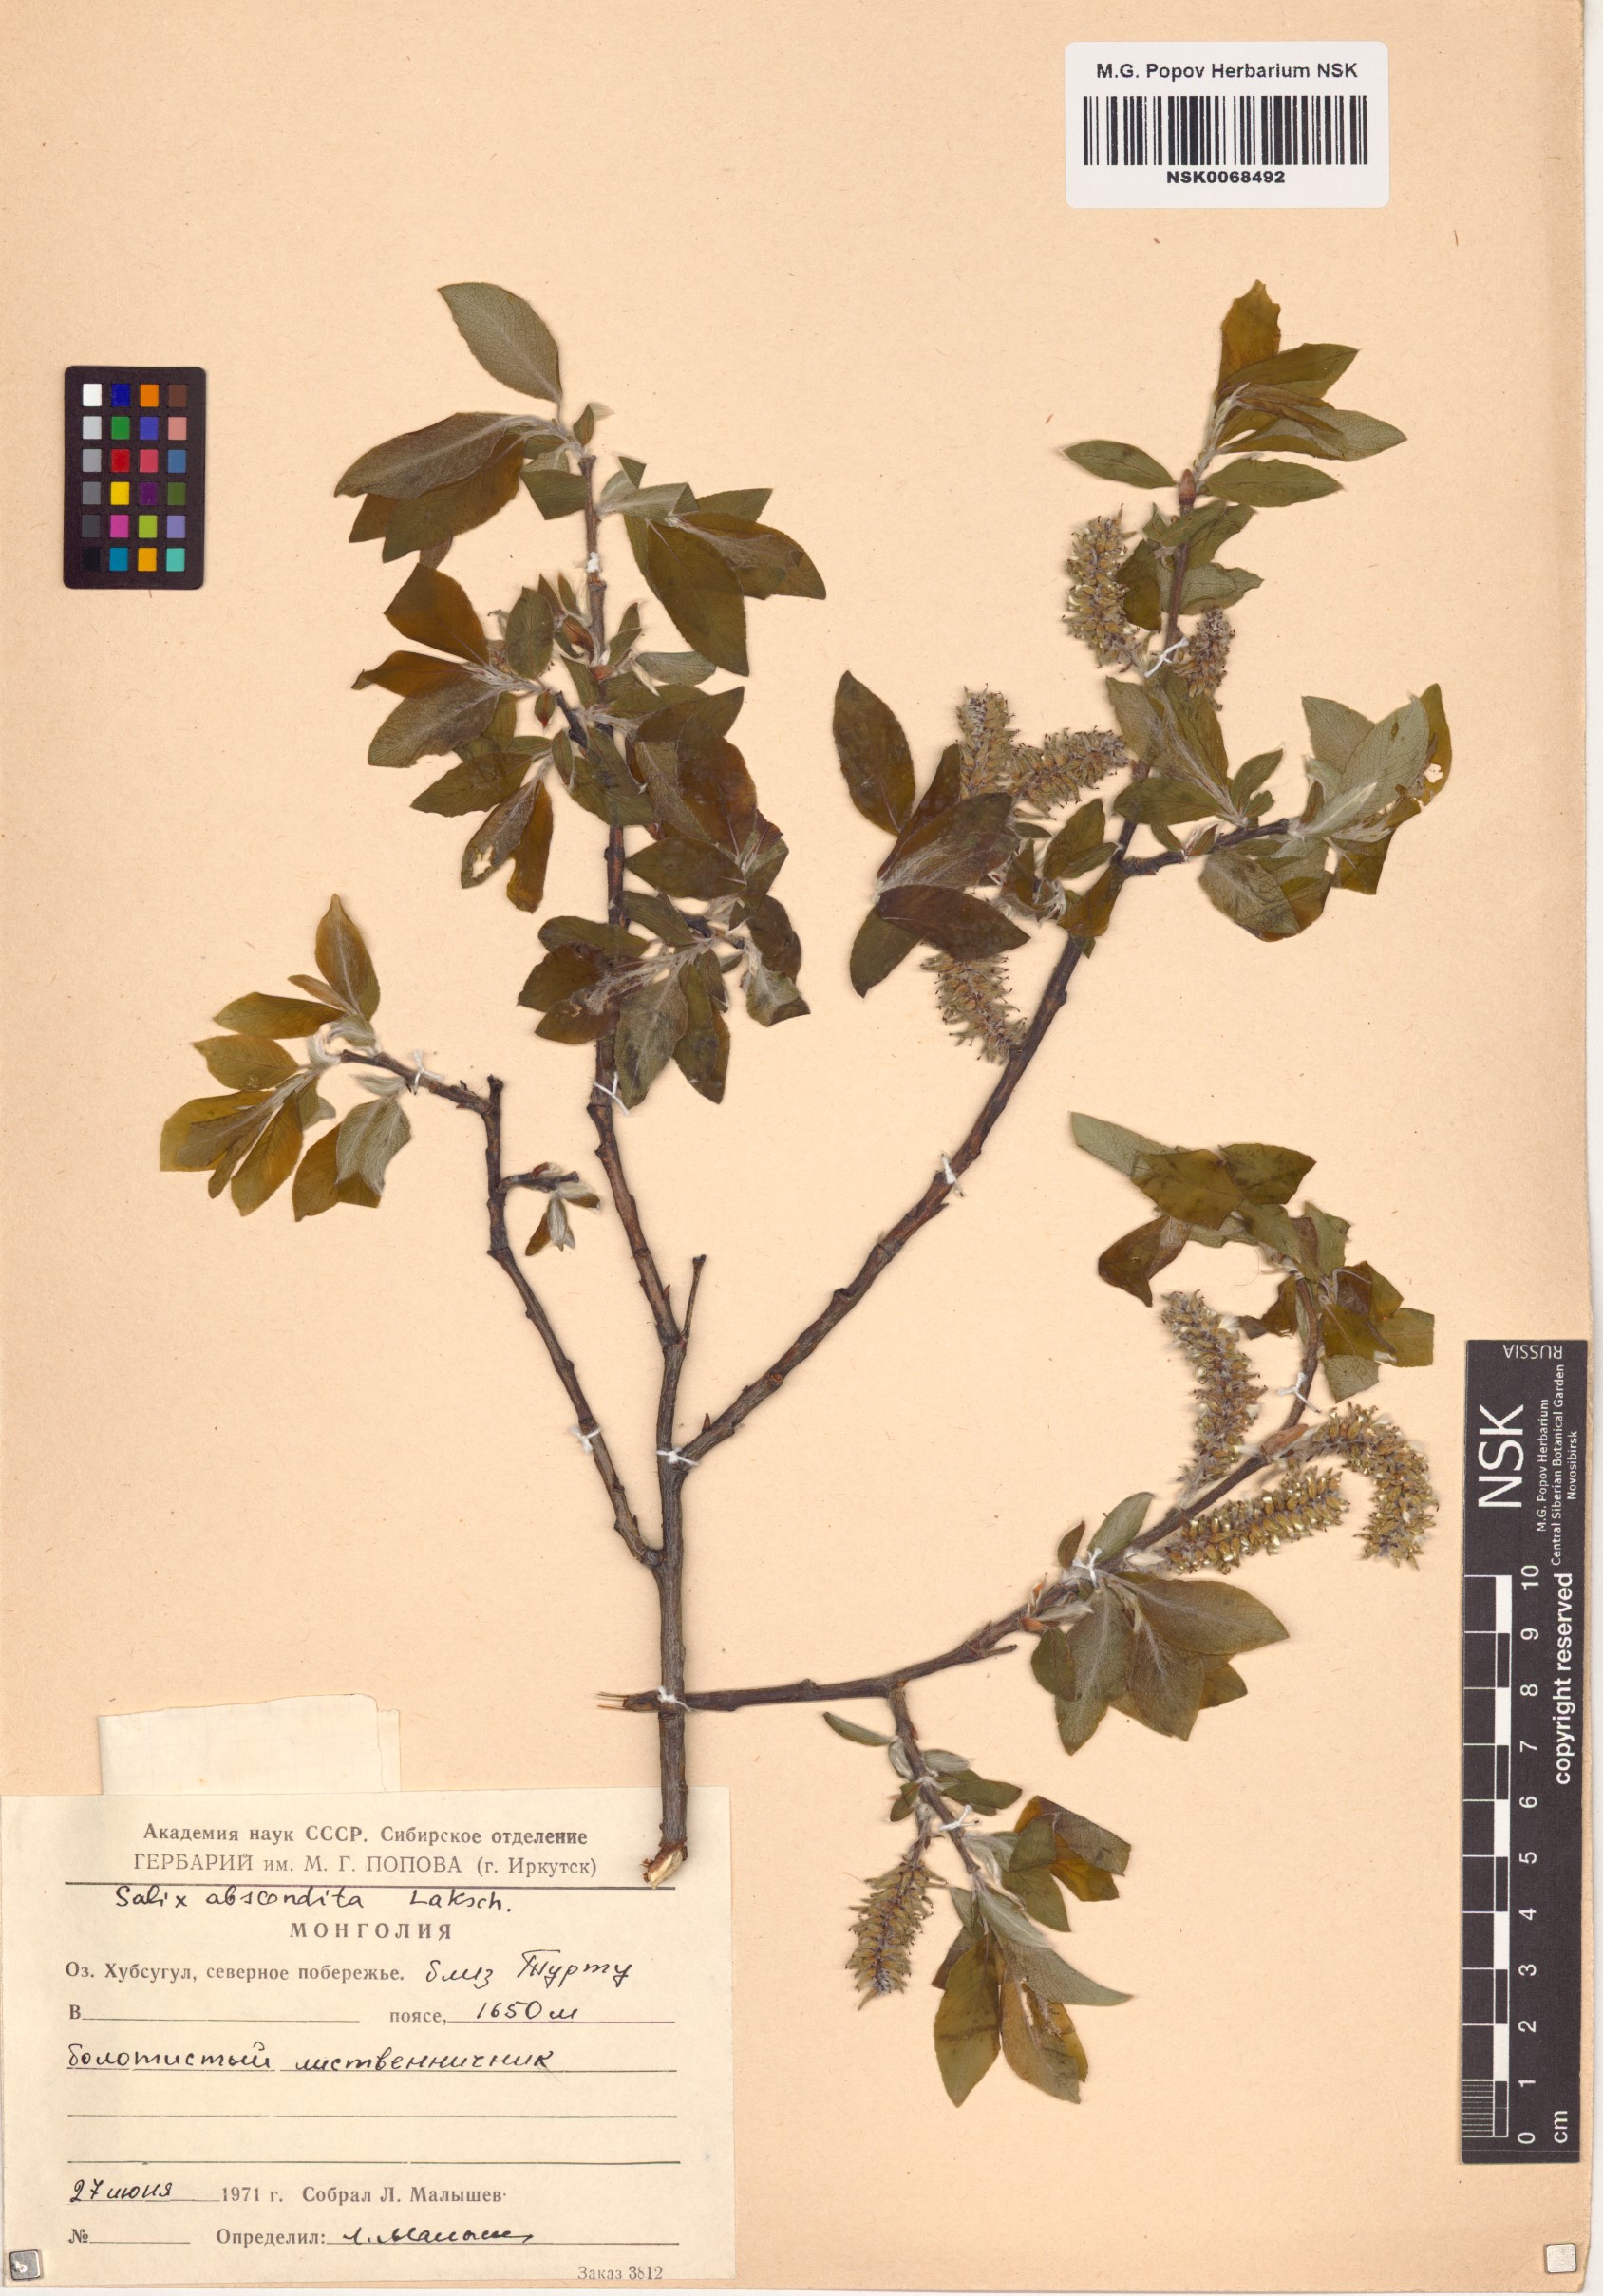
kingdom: Plantae
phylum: Tracheophyta
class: Magnoliopsida
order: Malpighiales
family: Salicaceae
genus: Salix
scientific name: Salix abscondita
